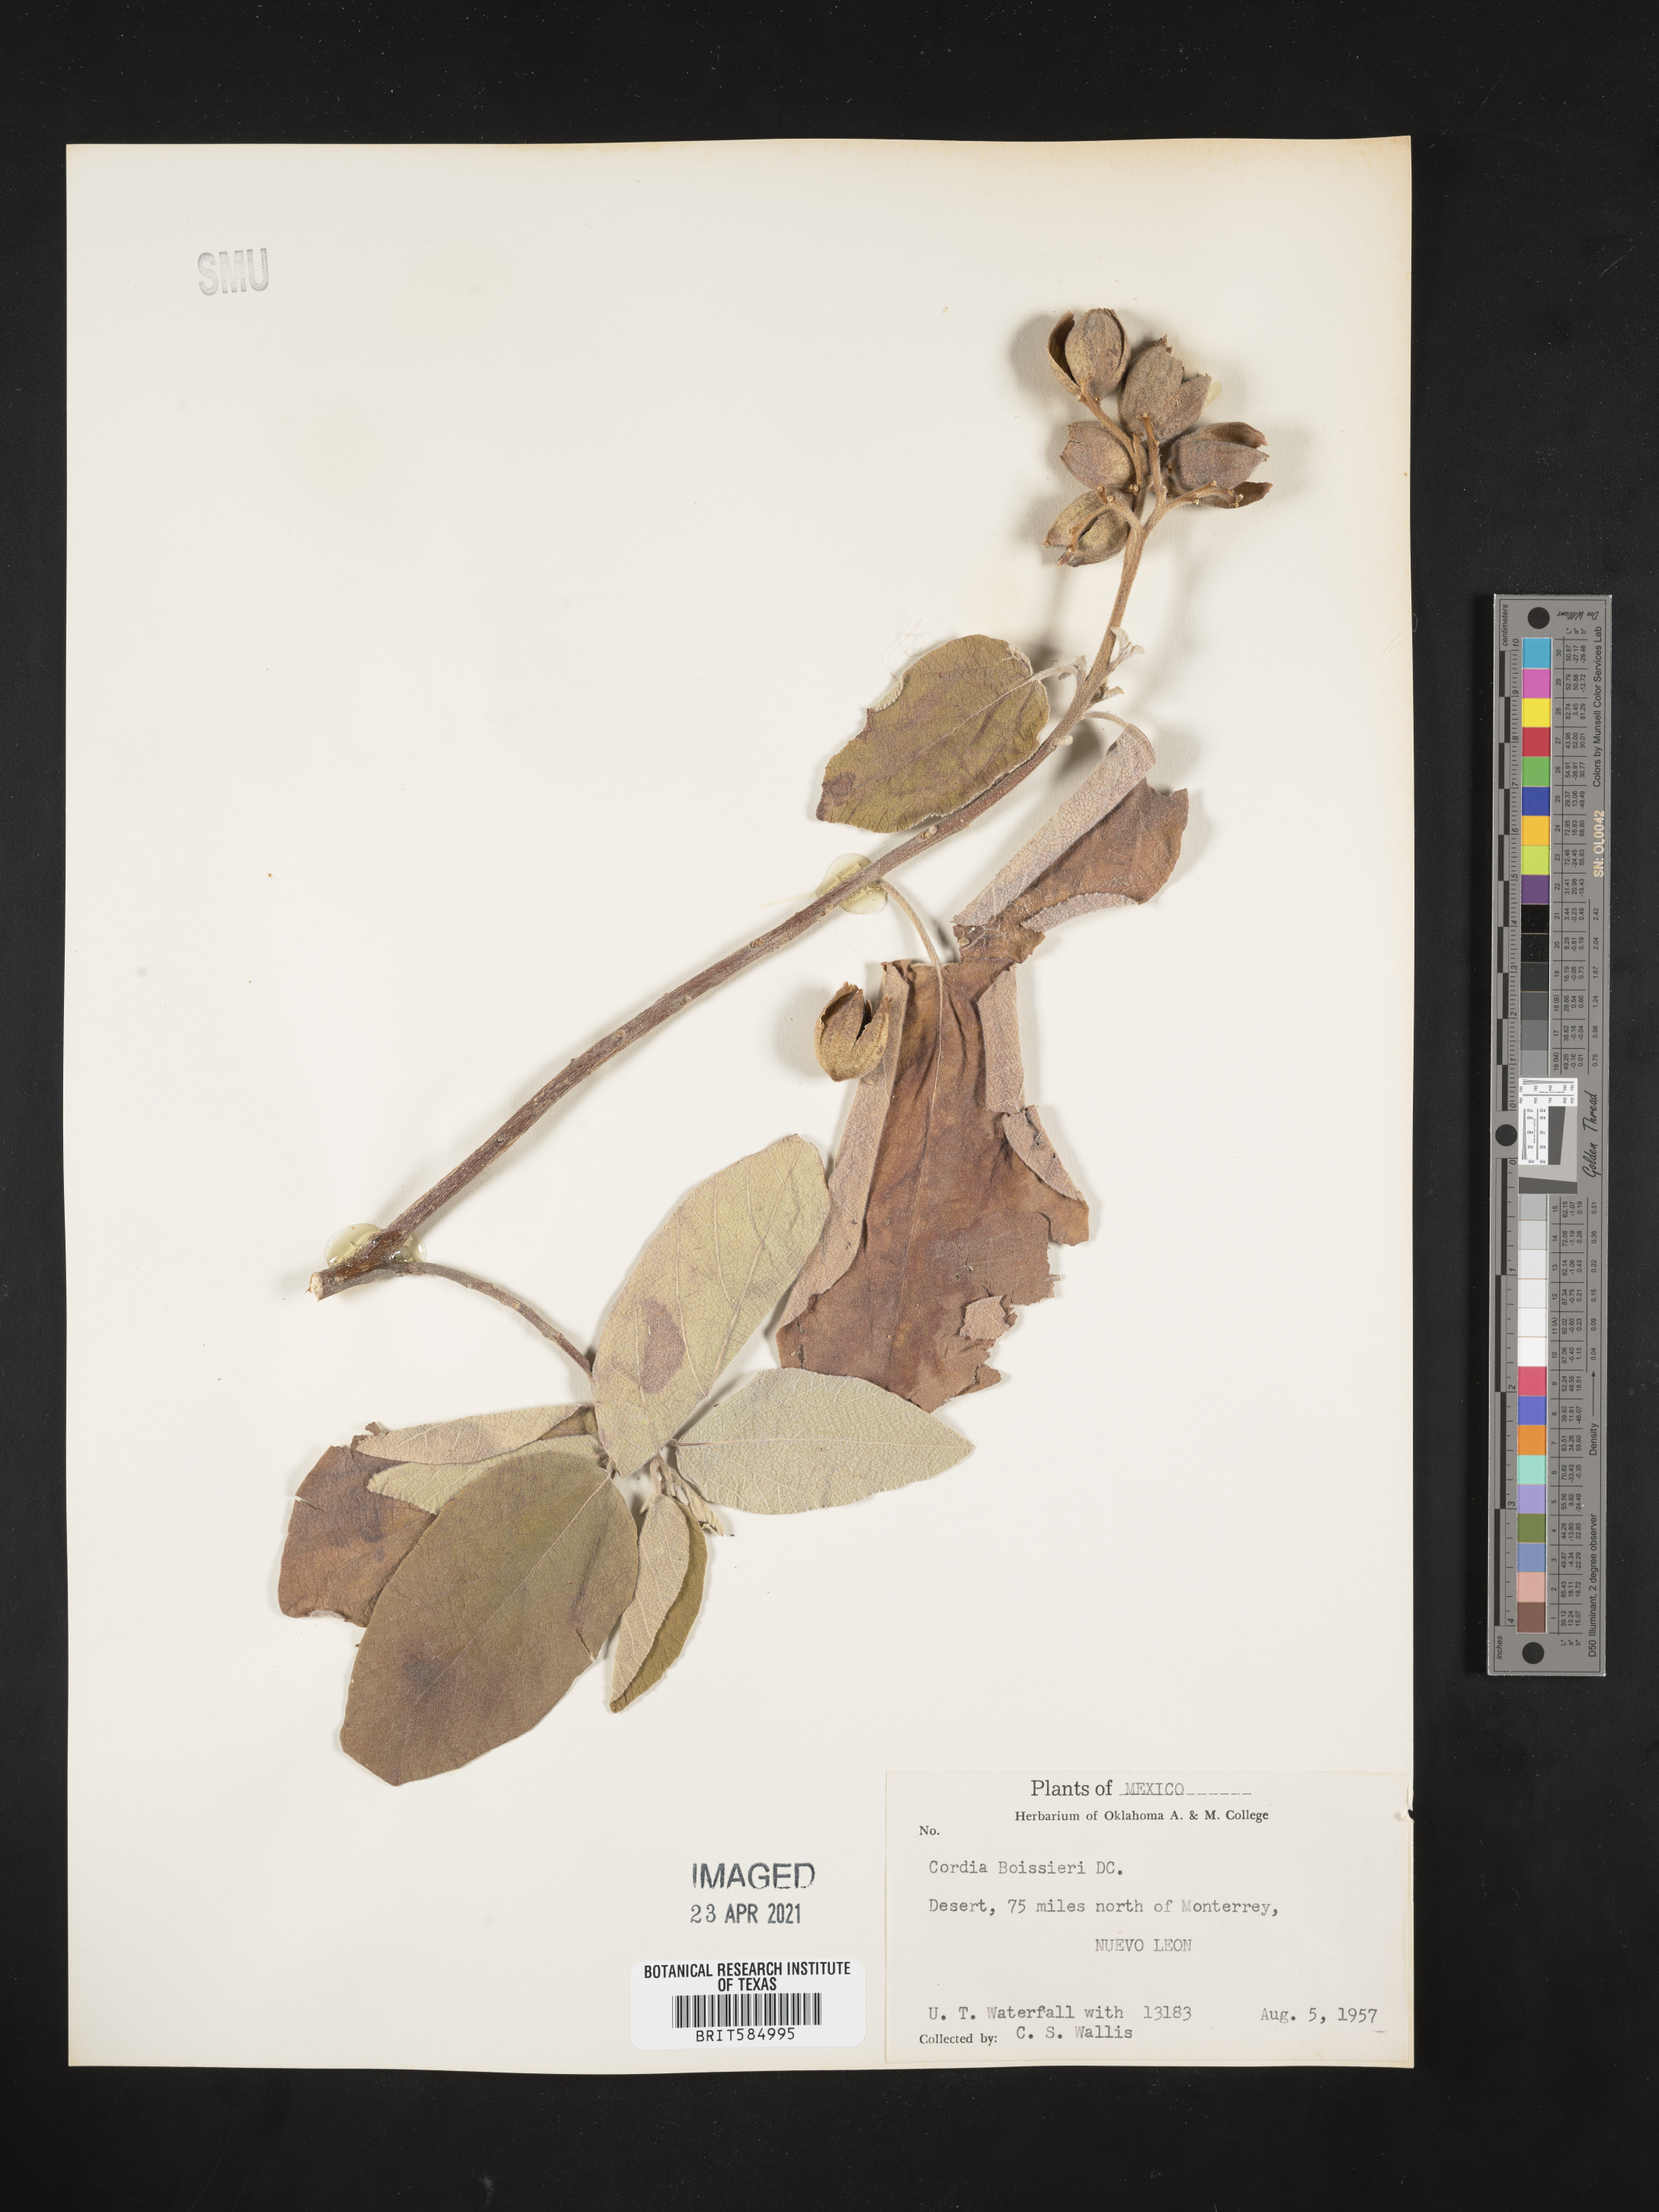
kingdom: Plantae
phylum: Tracheophyta
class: Magnoliopsida
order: Boraginales
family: Cordiaceae
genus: Cordia
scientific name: Cordia boissieri
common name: Mexican-olive
